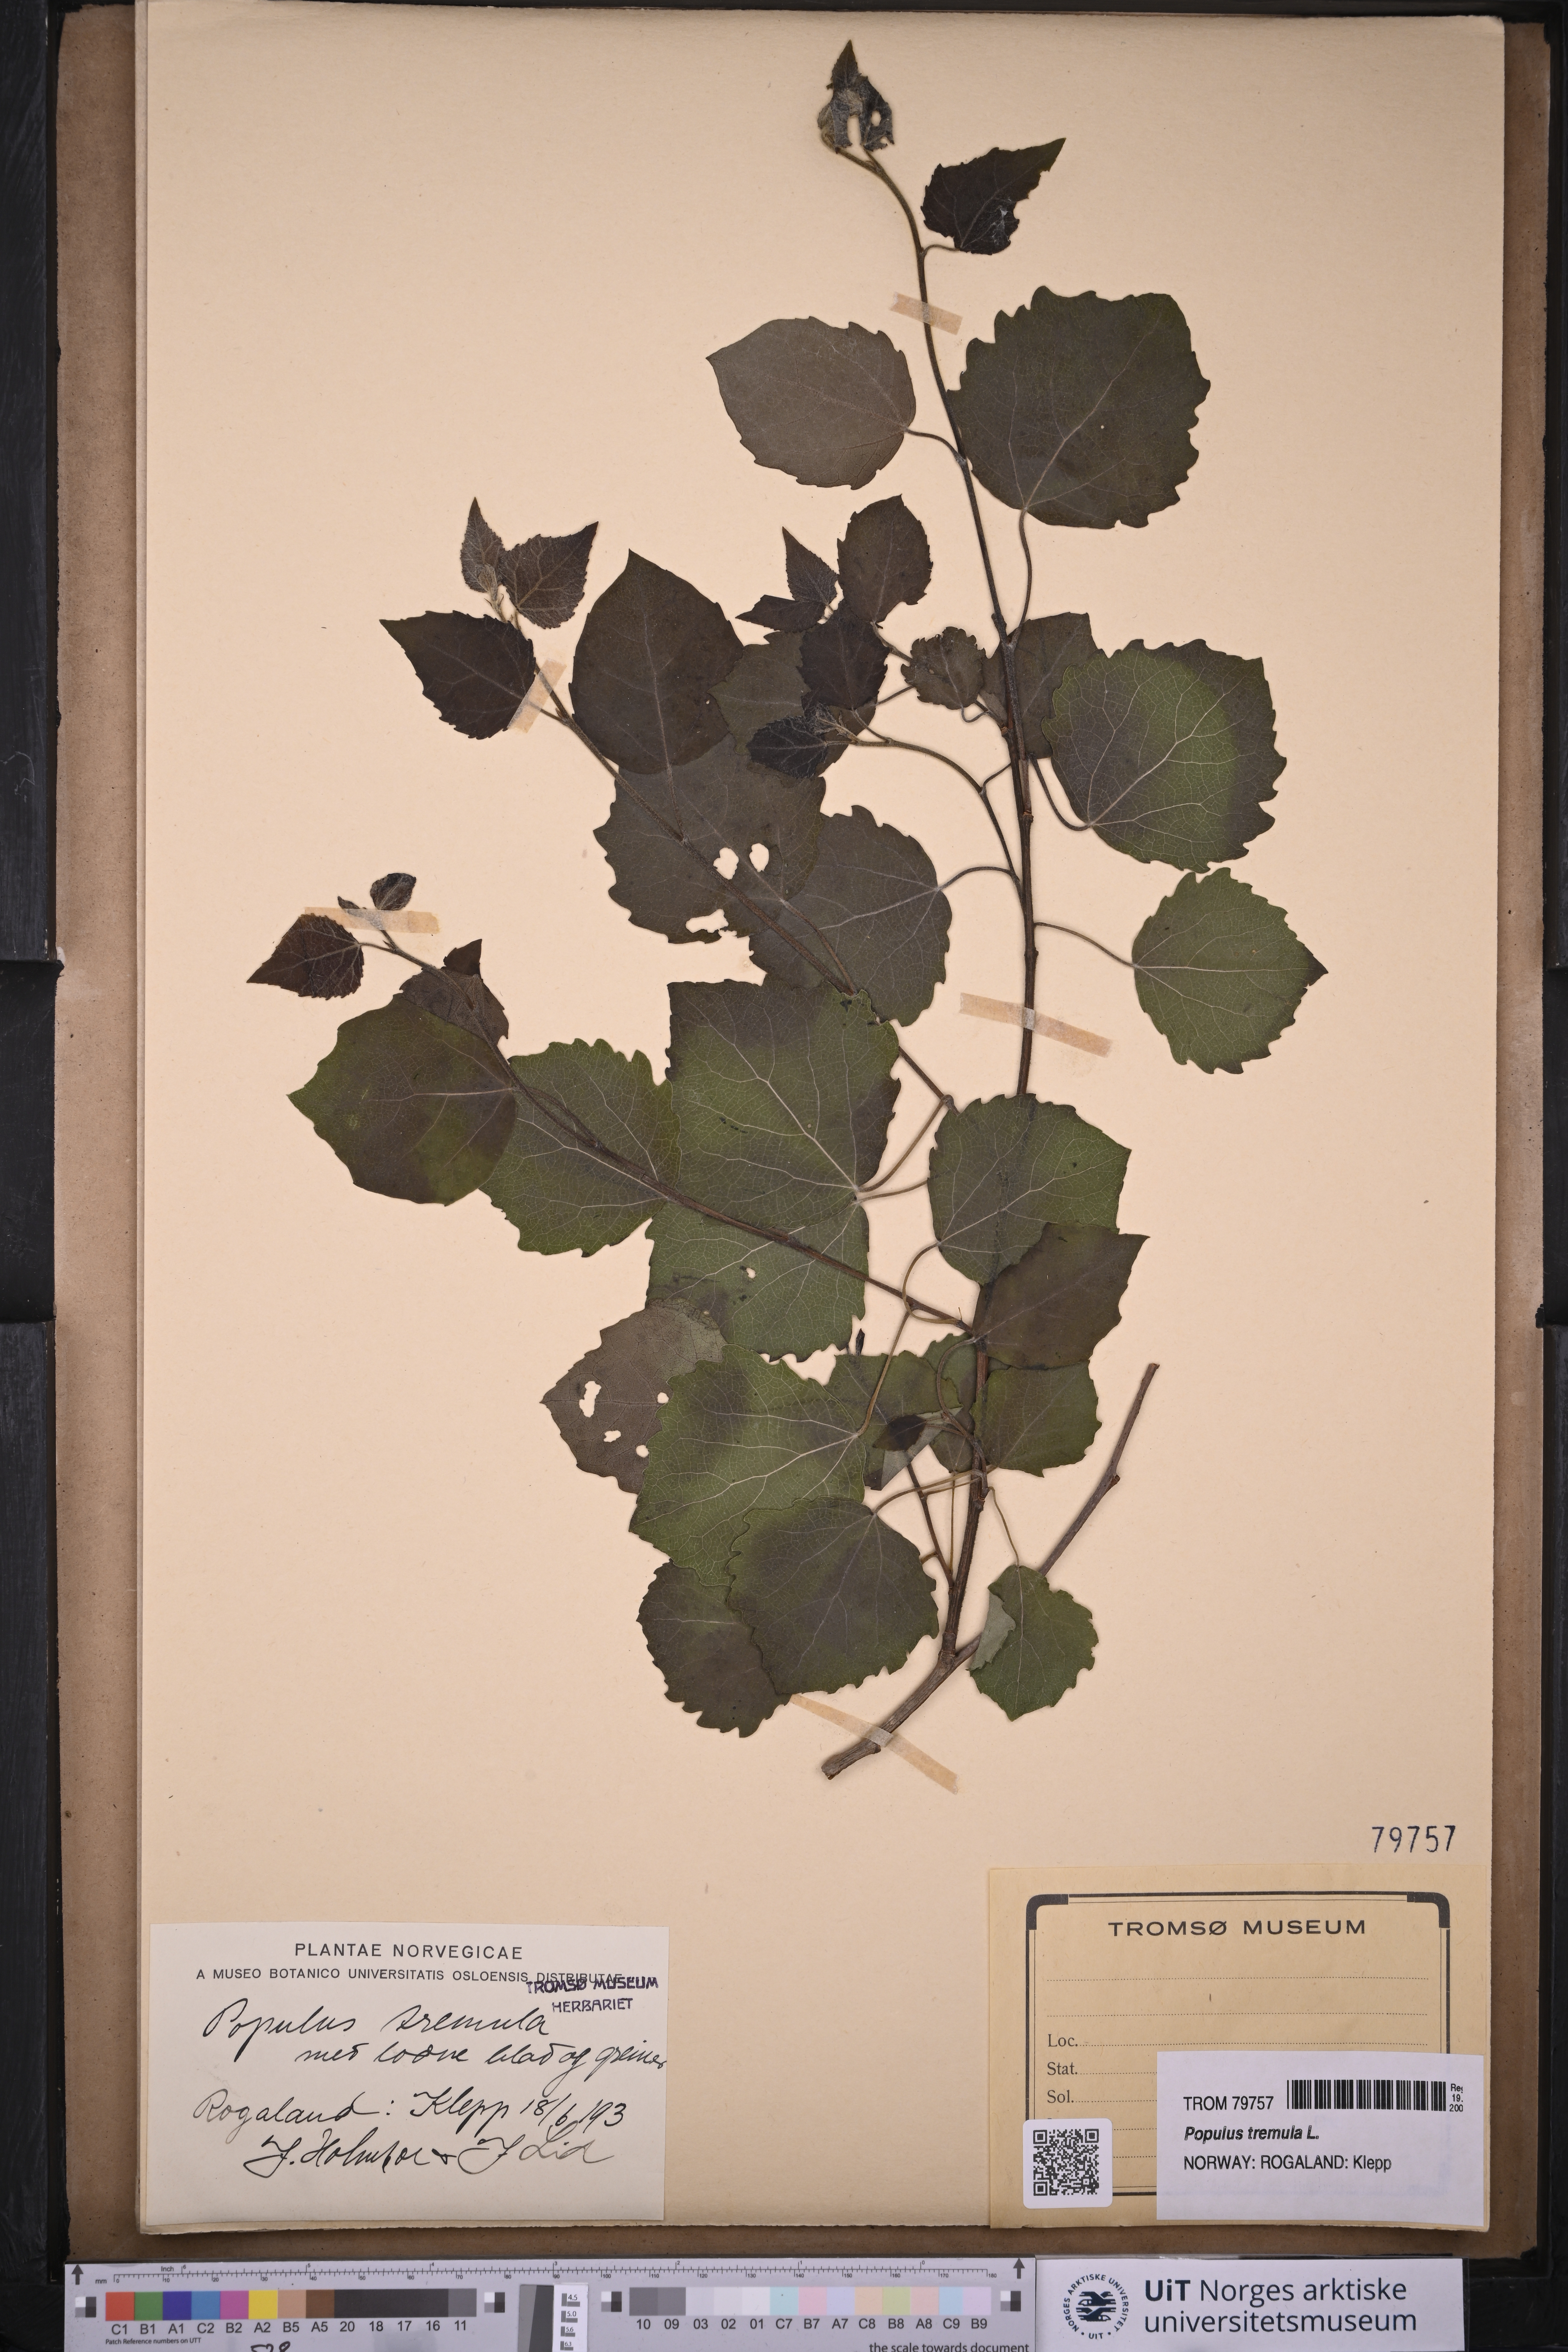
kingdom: Plantae
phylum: Tracheophyta
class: Magnoliopsida
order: Malpighiales
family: Salicaceae
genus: Populus
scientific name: Populus tremula
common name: European aspen
